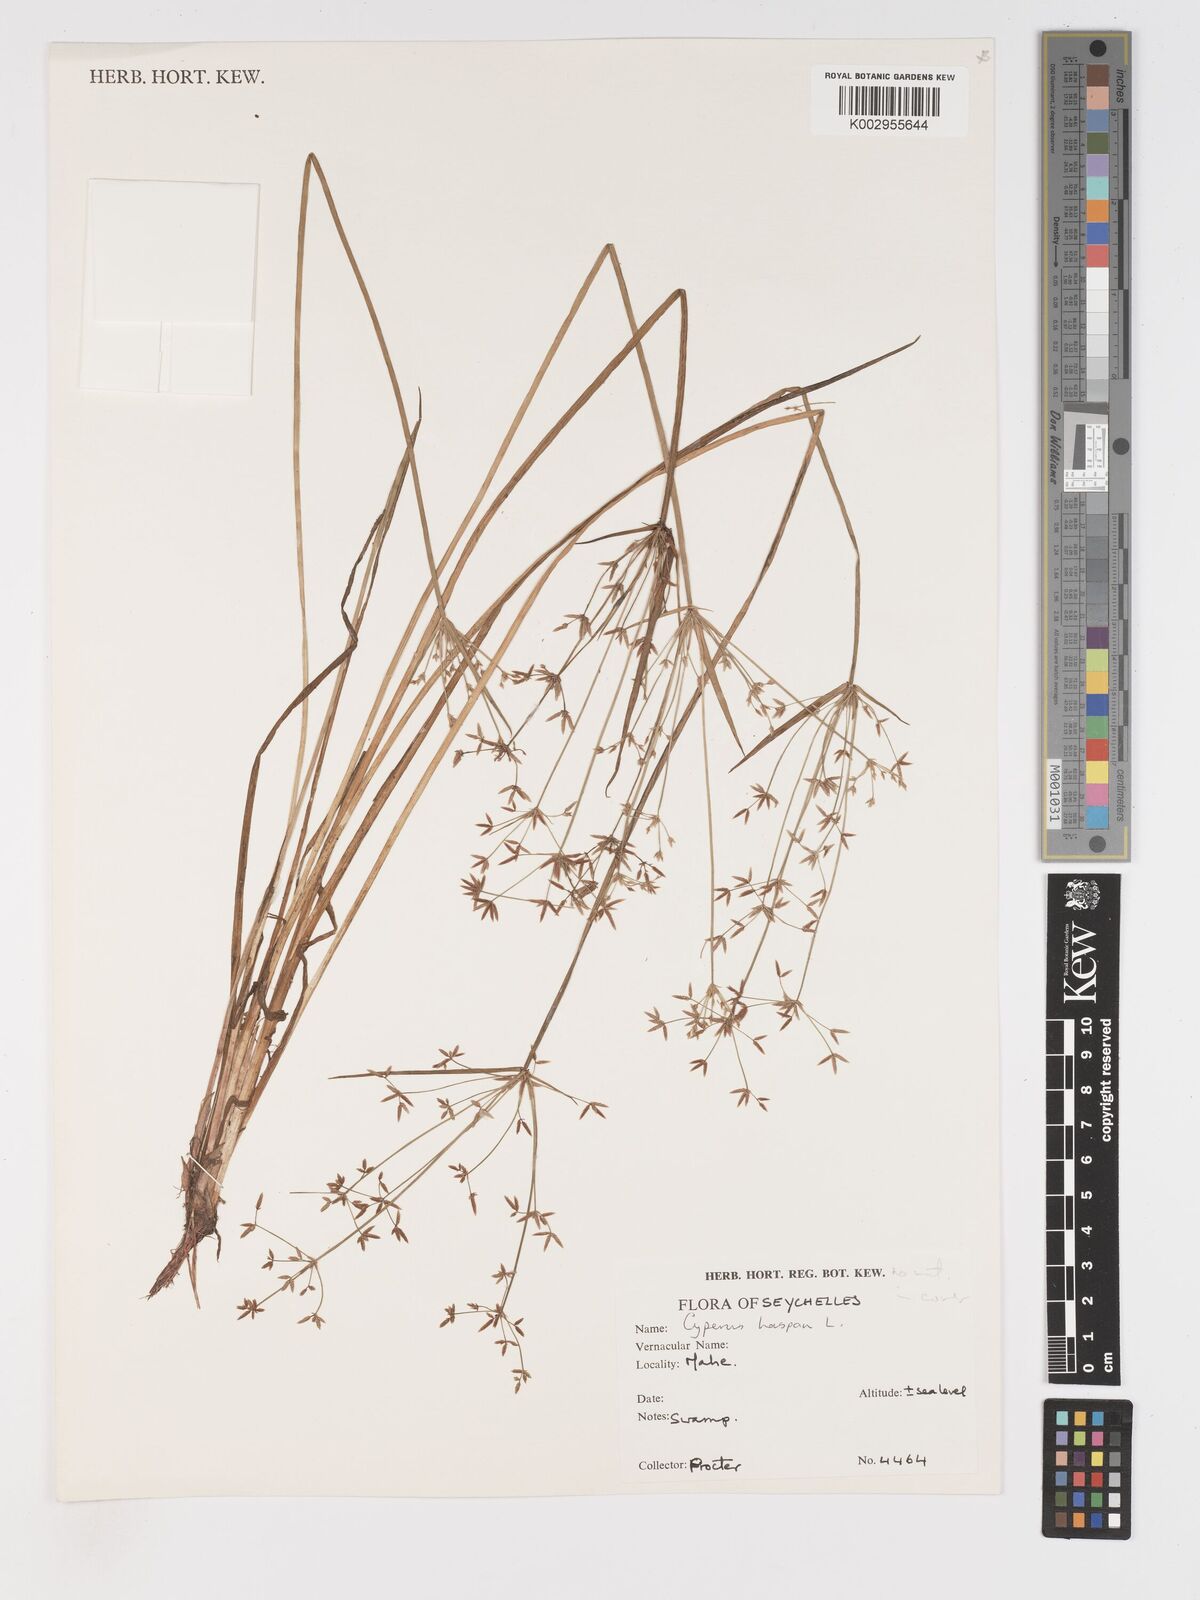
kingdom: Plantae
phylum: Tracheophyta
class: Liliopsida
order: Poales
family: Cyperaceae
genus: Cyperus
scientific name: Cyperus haspan
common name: Haspan flatsedge
